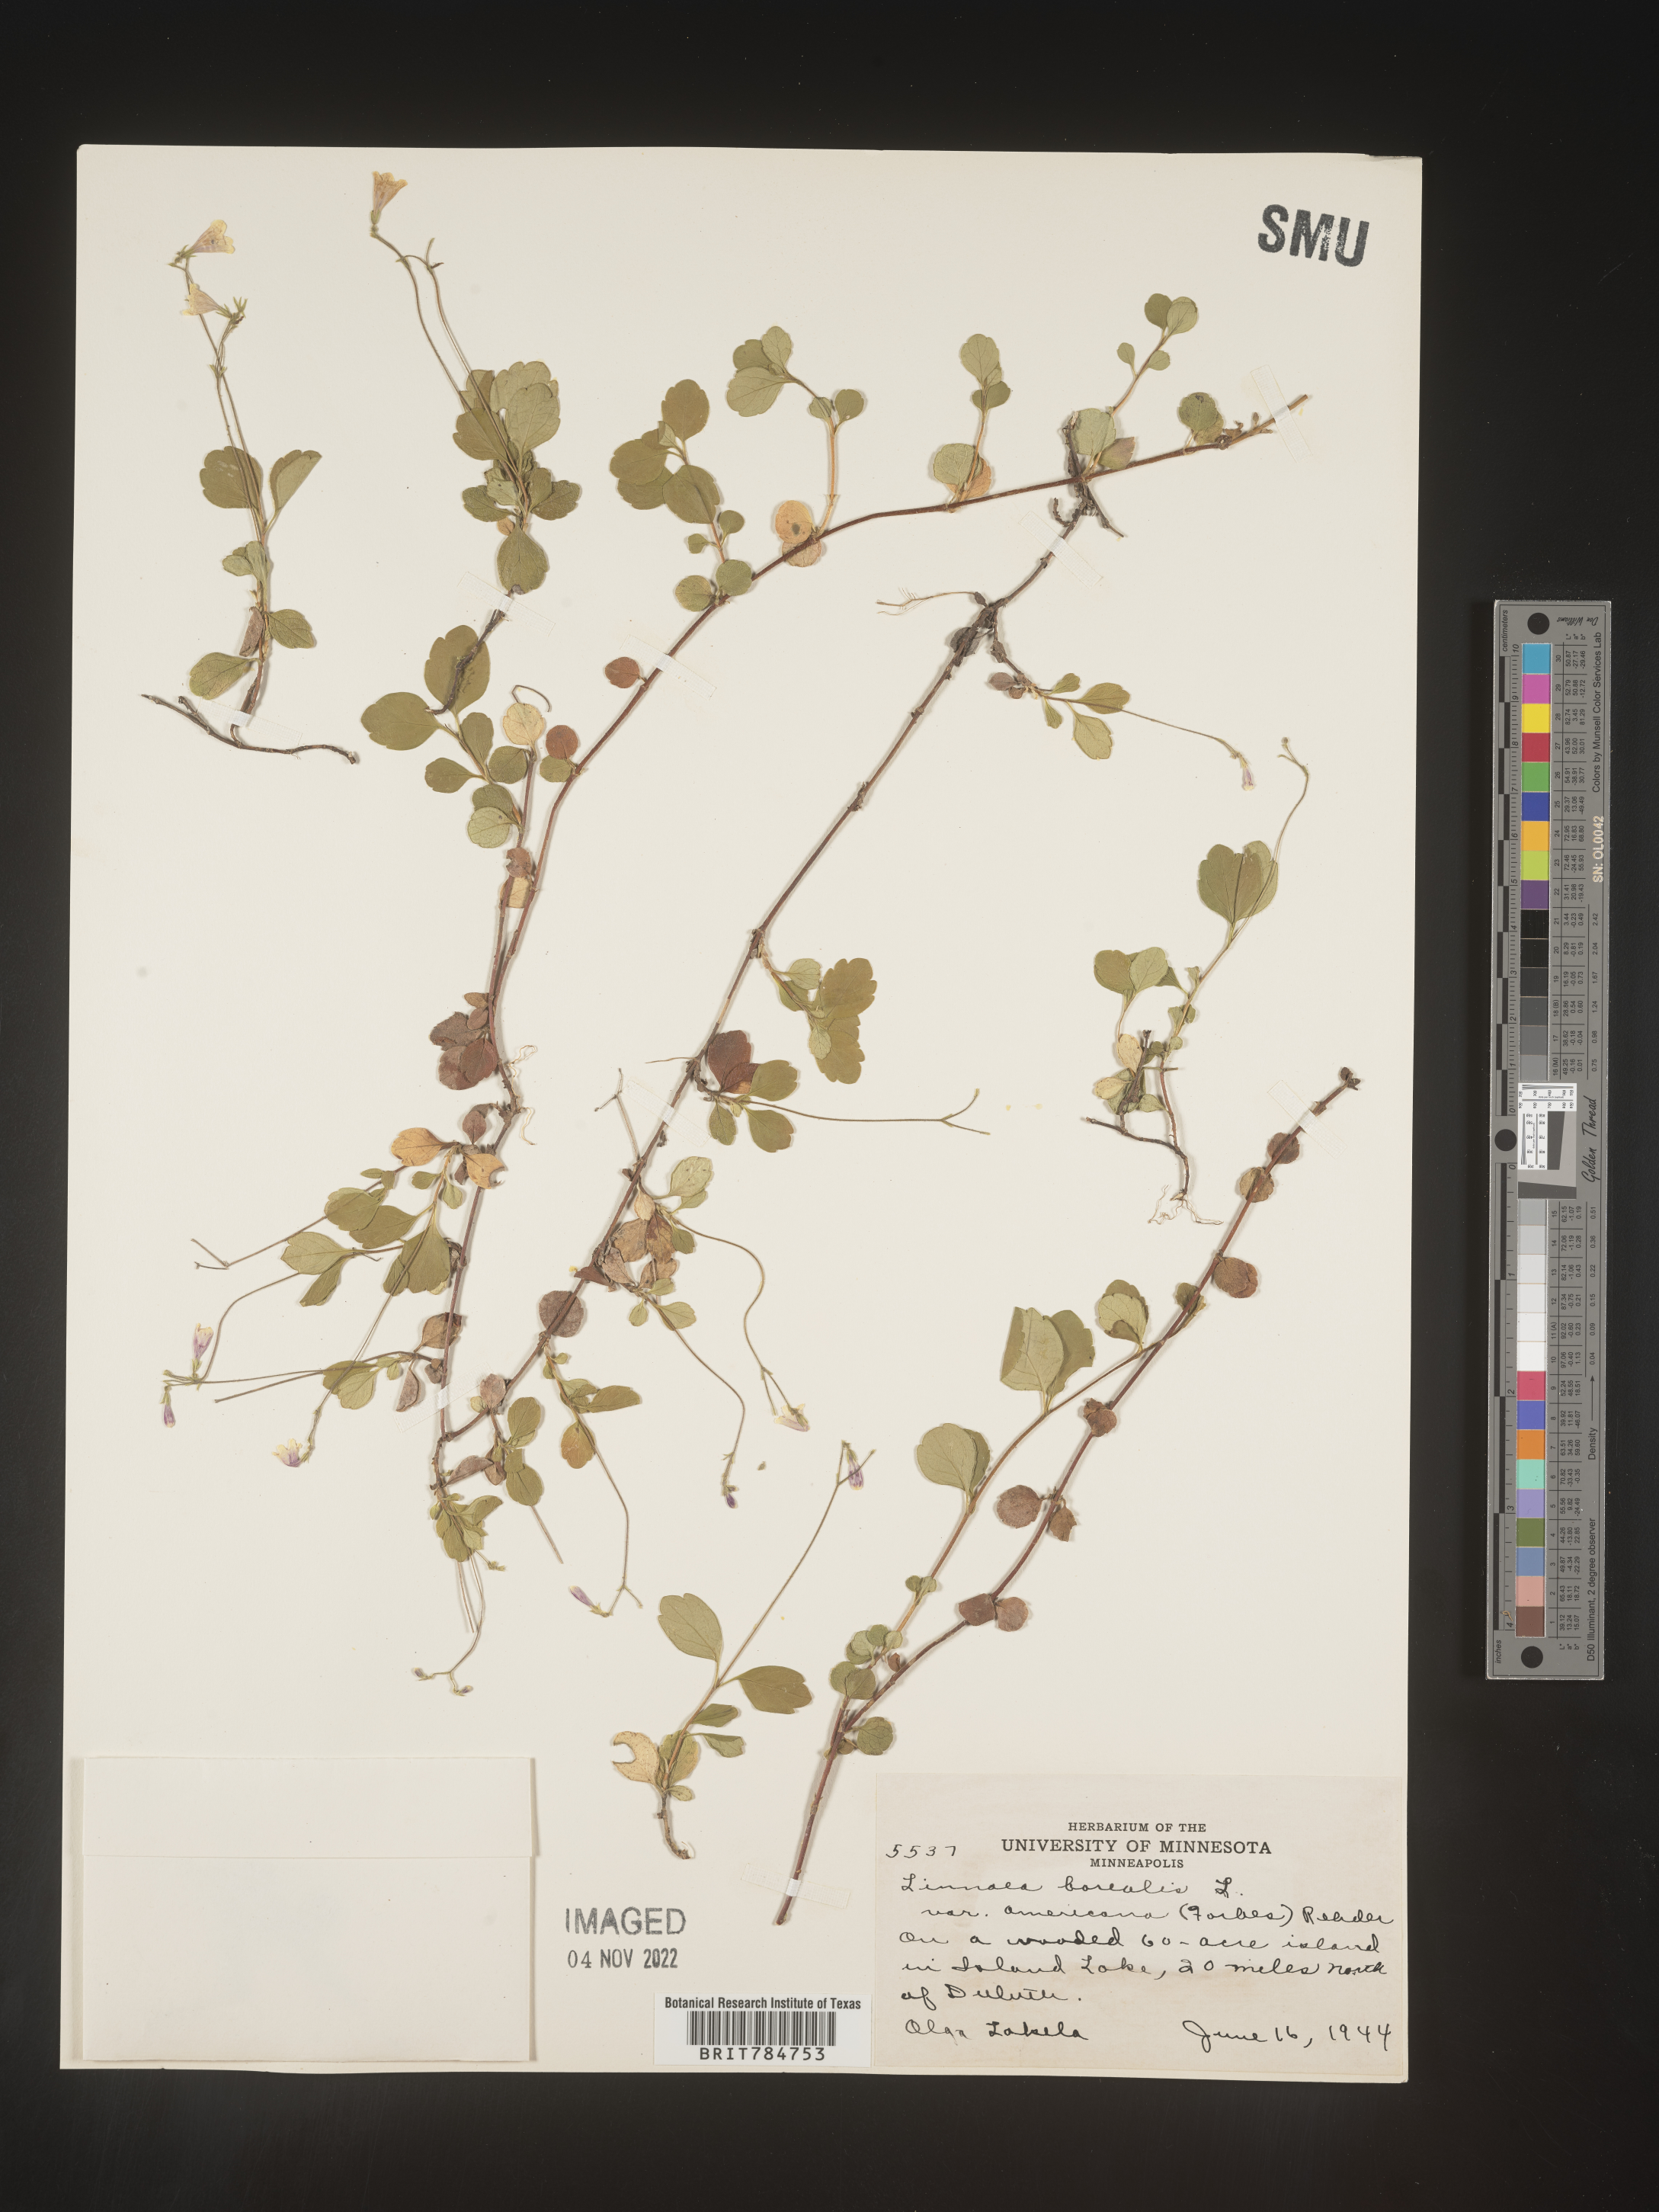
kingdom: Plantae
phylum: Tracheophyta
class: Magnoliopsida
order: Dipsacales
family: Caprifoliaceae
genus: Linnaea
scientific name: Linnaea borealis
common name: Twinflower
